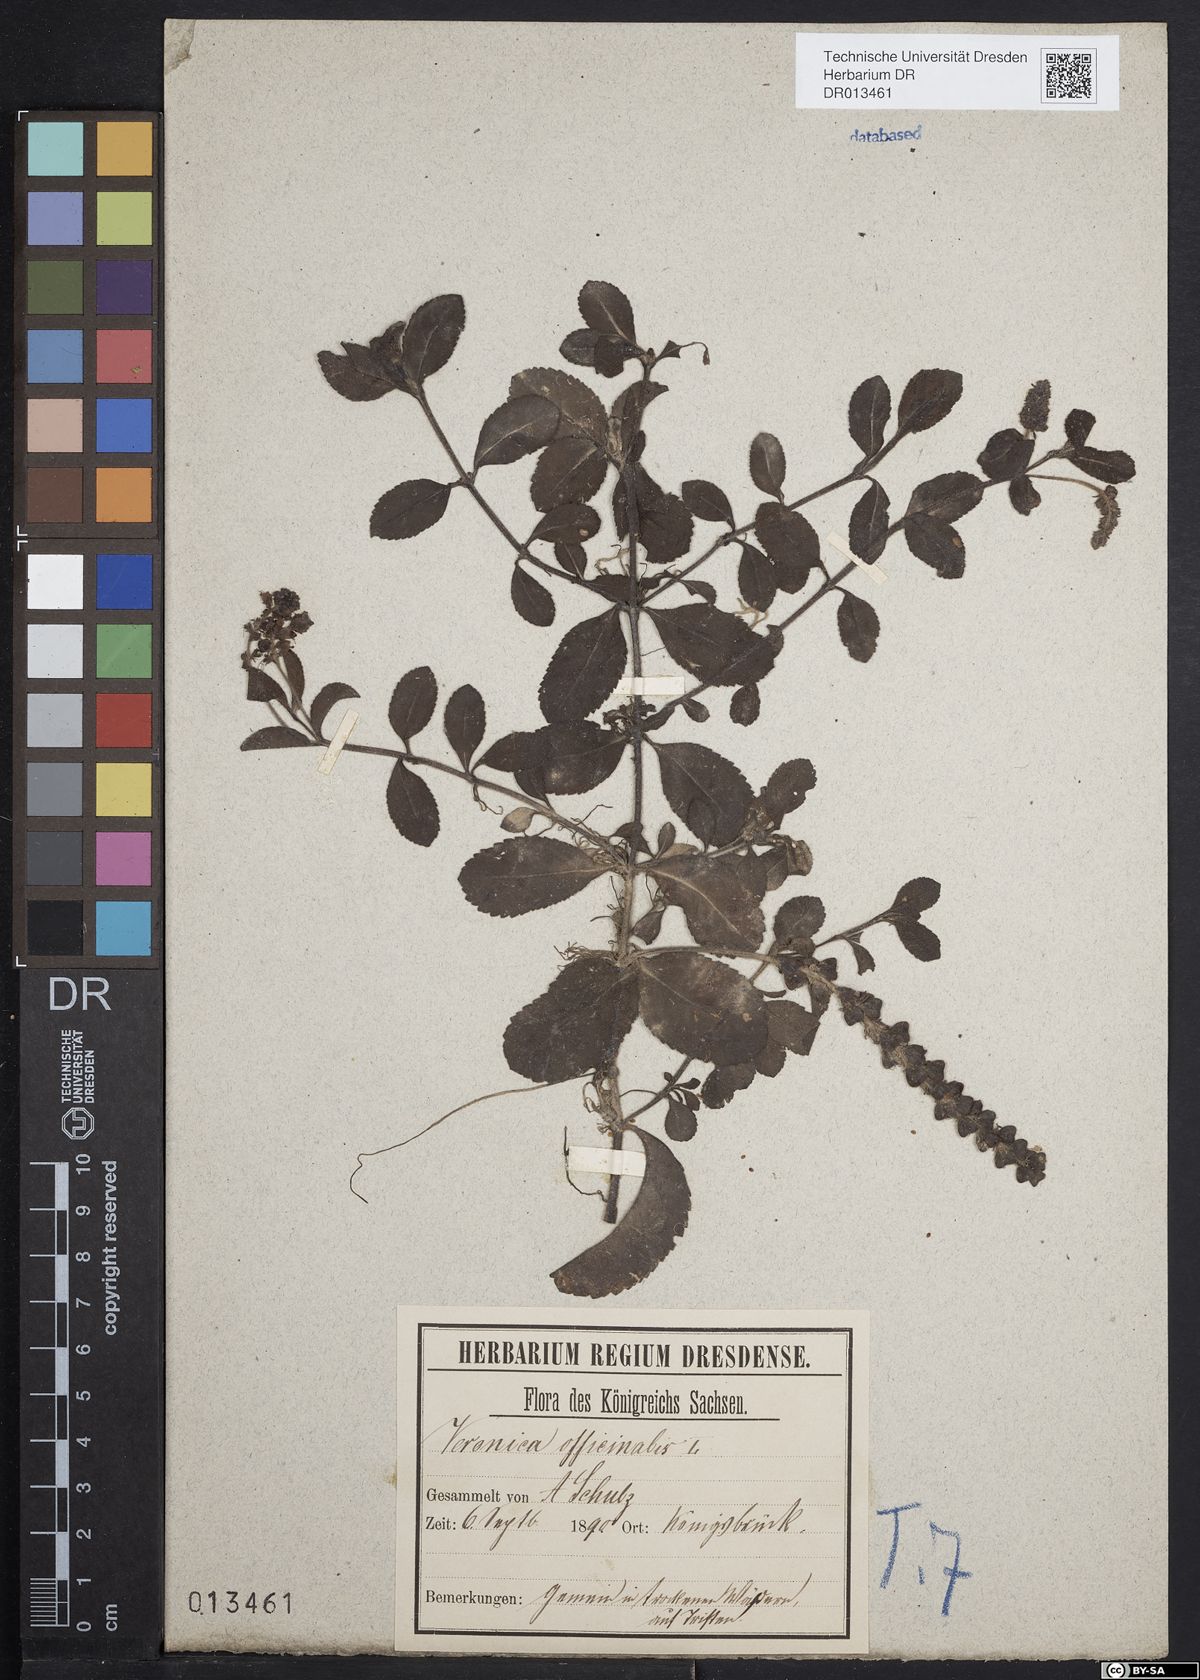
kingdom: Plantae
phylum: Tracheophyta
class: Magnoliopsida
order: Lamiales
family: Plantaginaceae
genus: Veronica
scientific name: Veronica officinalis
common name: Common speedwell
